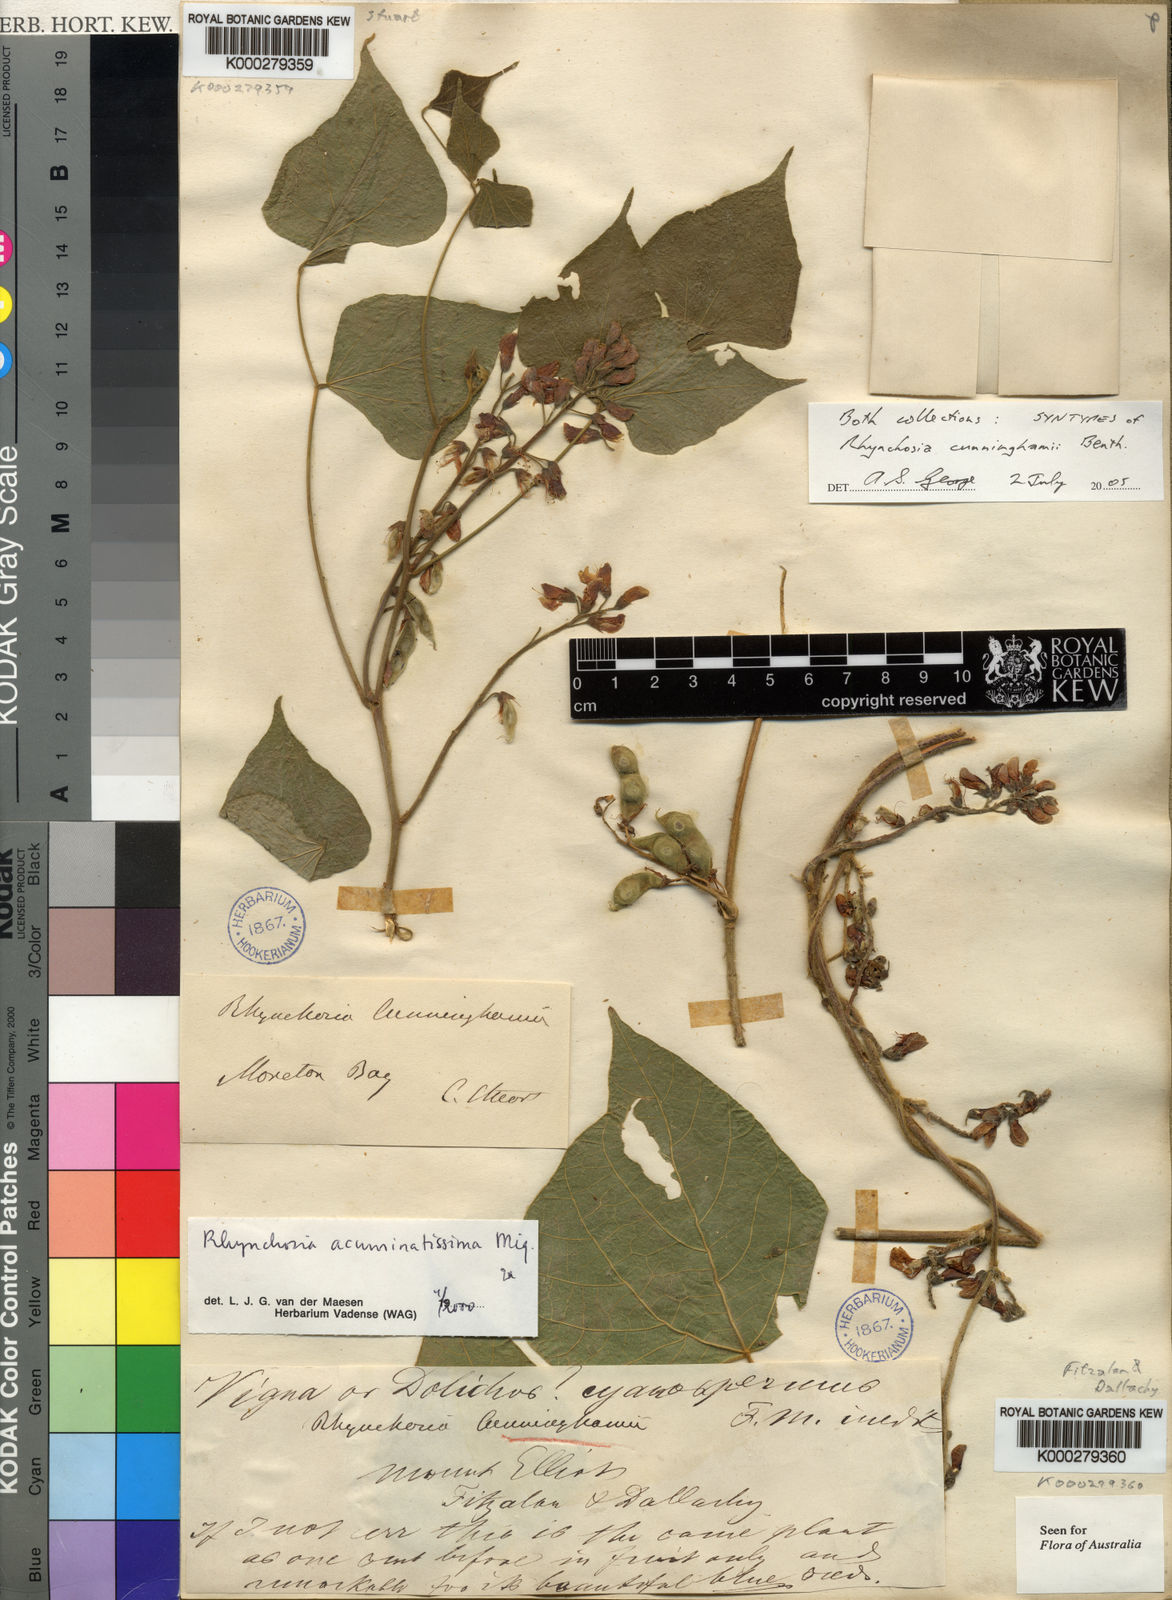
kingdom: Plantae
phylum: Tracheophyta
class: Magnoliopsida
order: Fabales
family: Fabaceae
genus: Rhynchosia
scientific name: Rhynchosia acuminatissima
